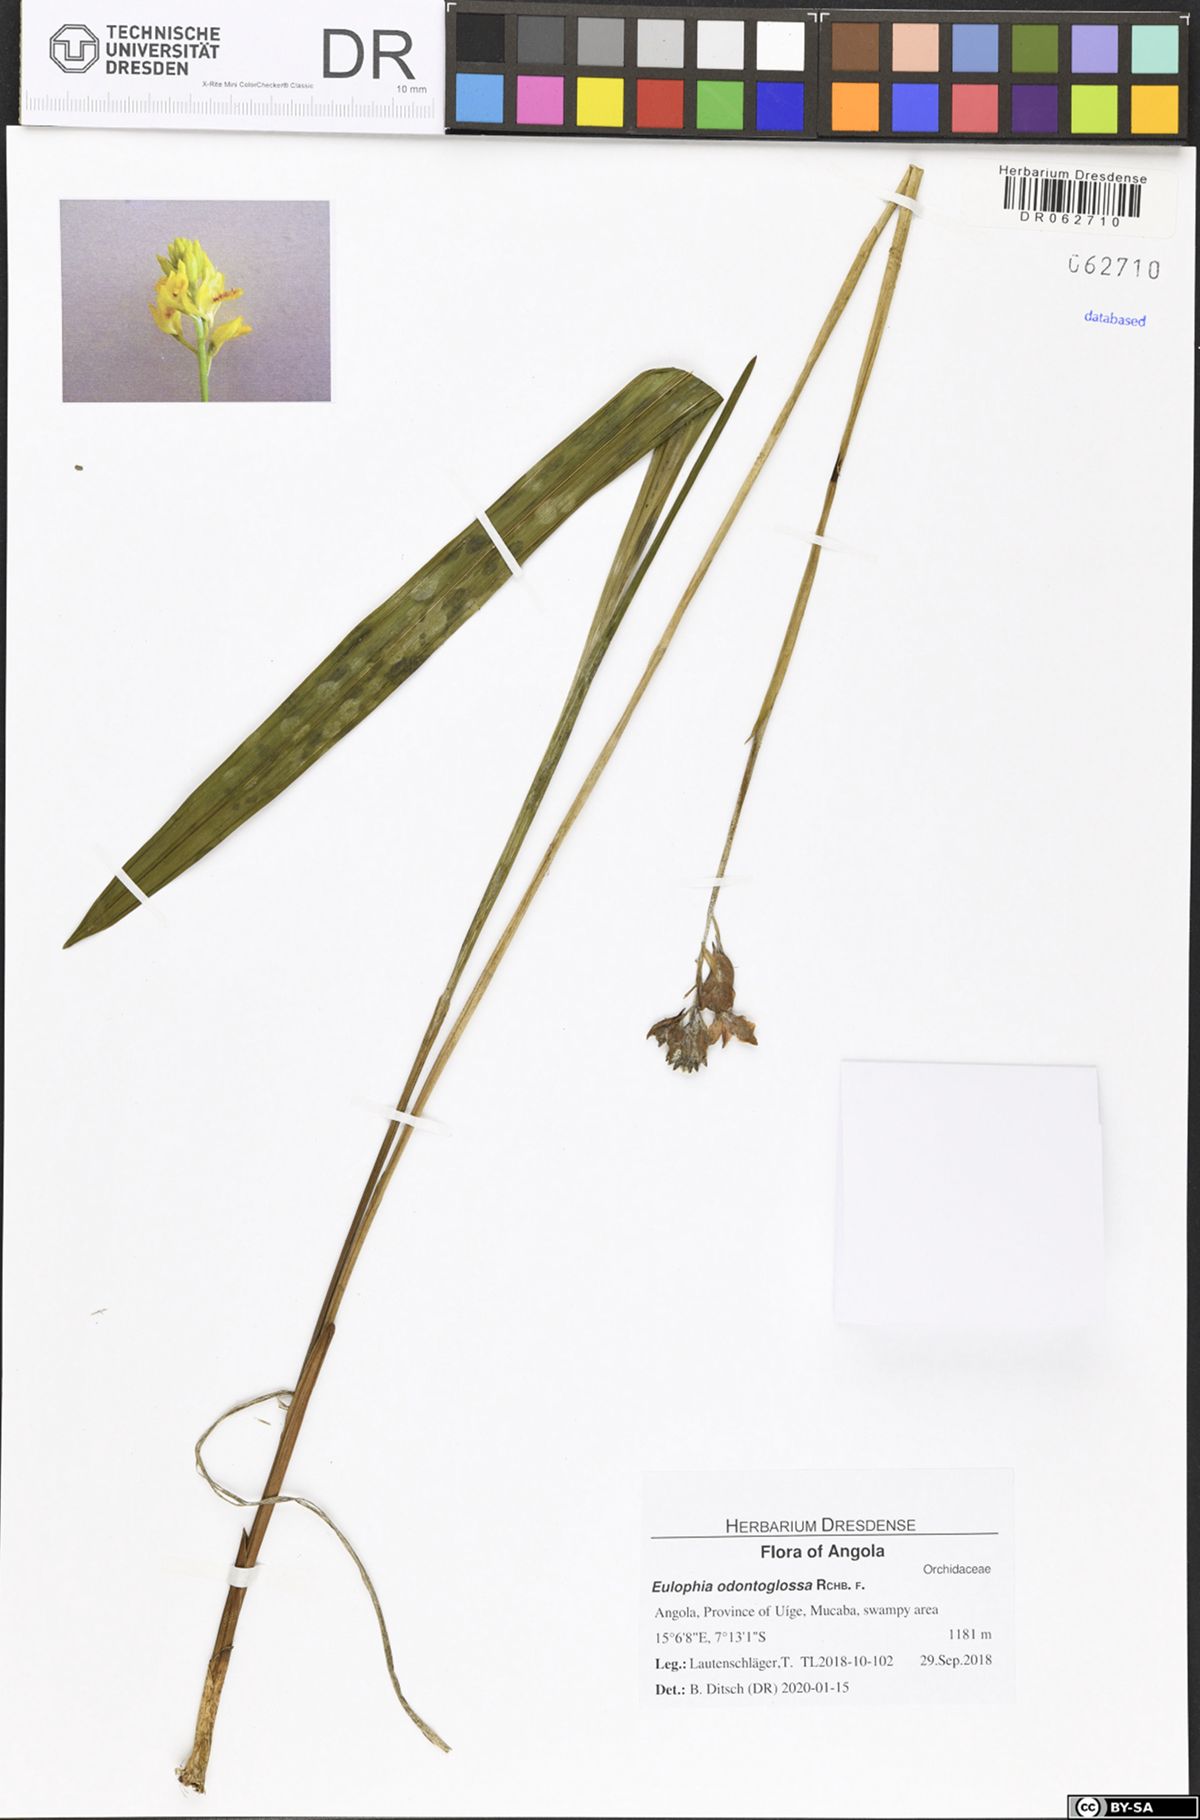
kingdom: Plantae
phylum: Tracheophyta
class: Liliopsida
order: Asparagales
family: Orchidaceae
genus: Eulophia
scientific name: Eulophia odontoglossa
